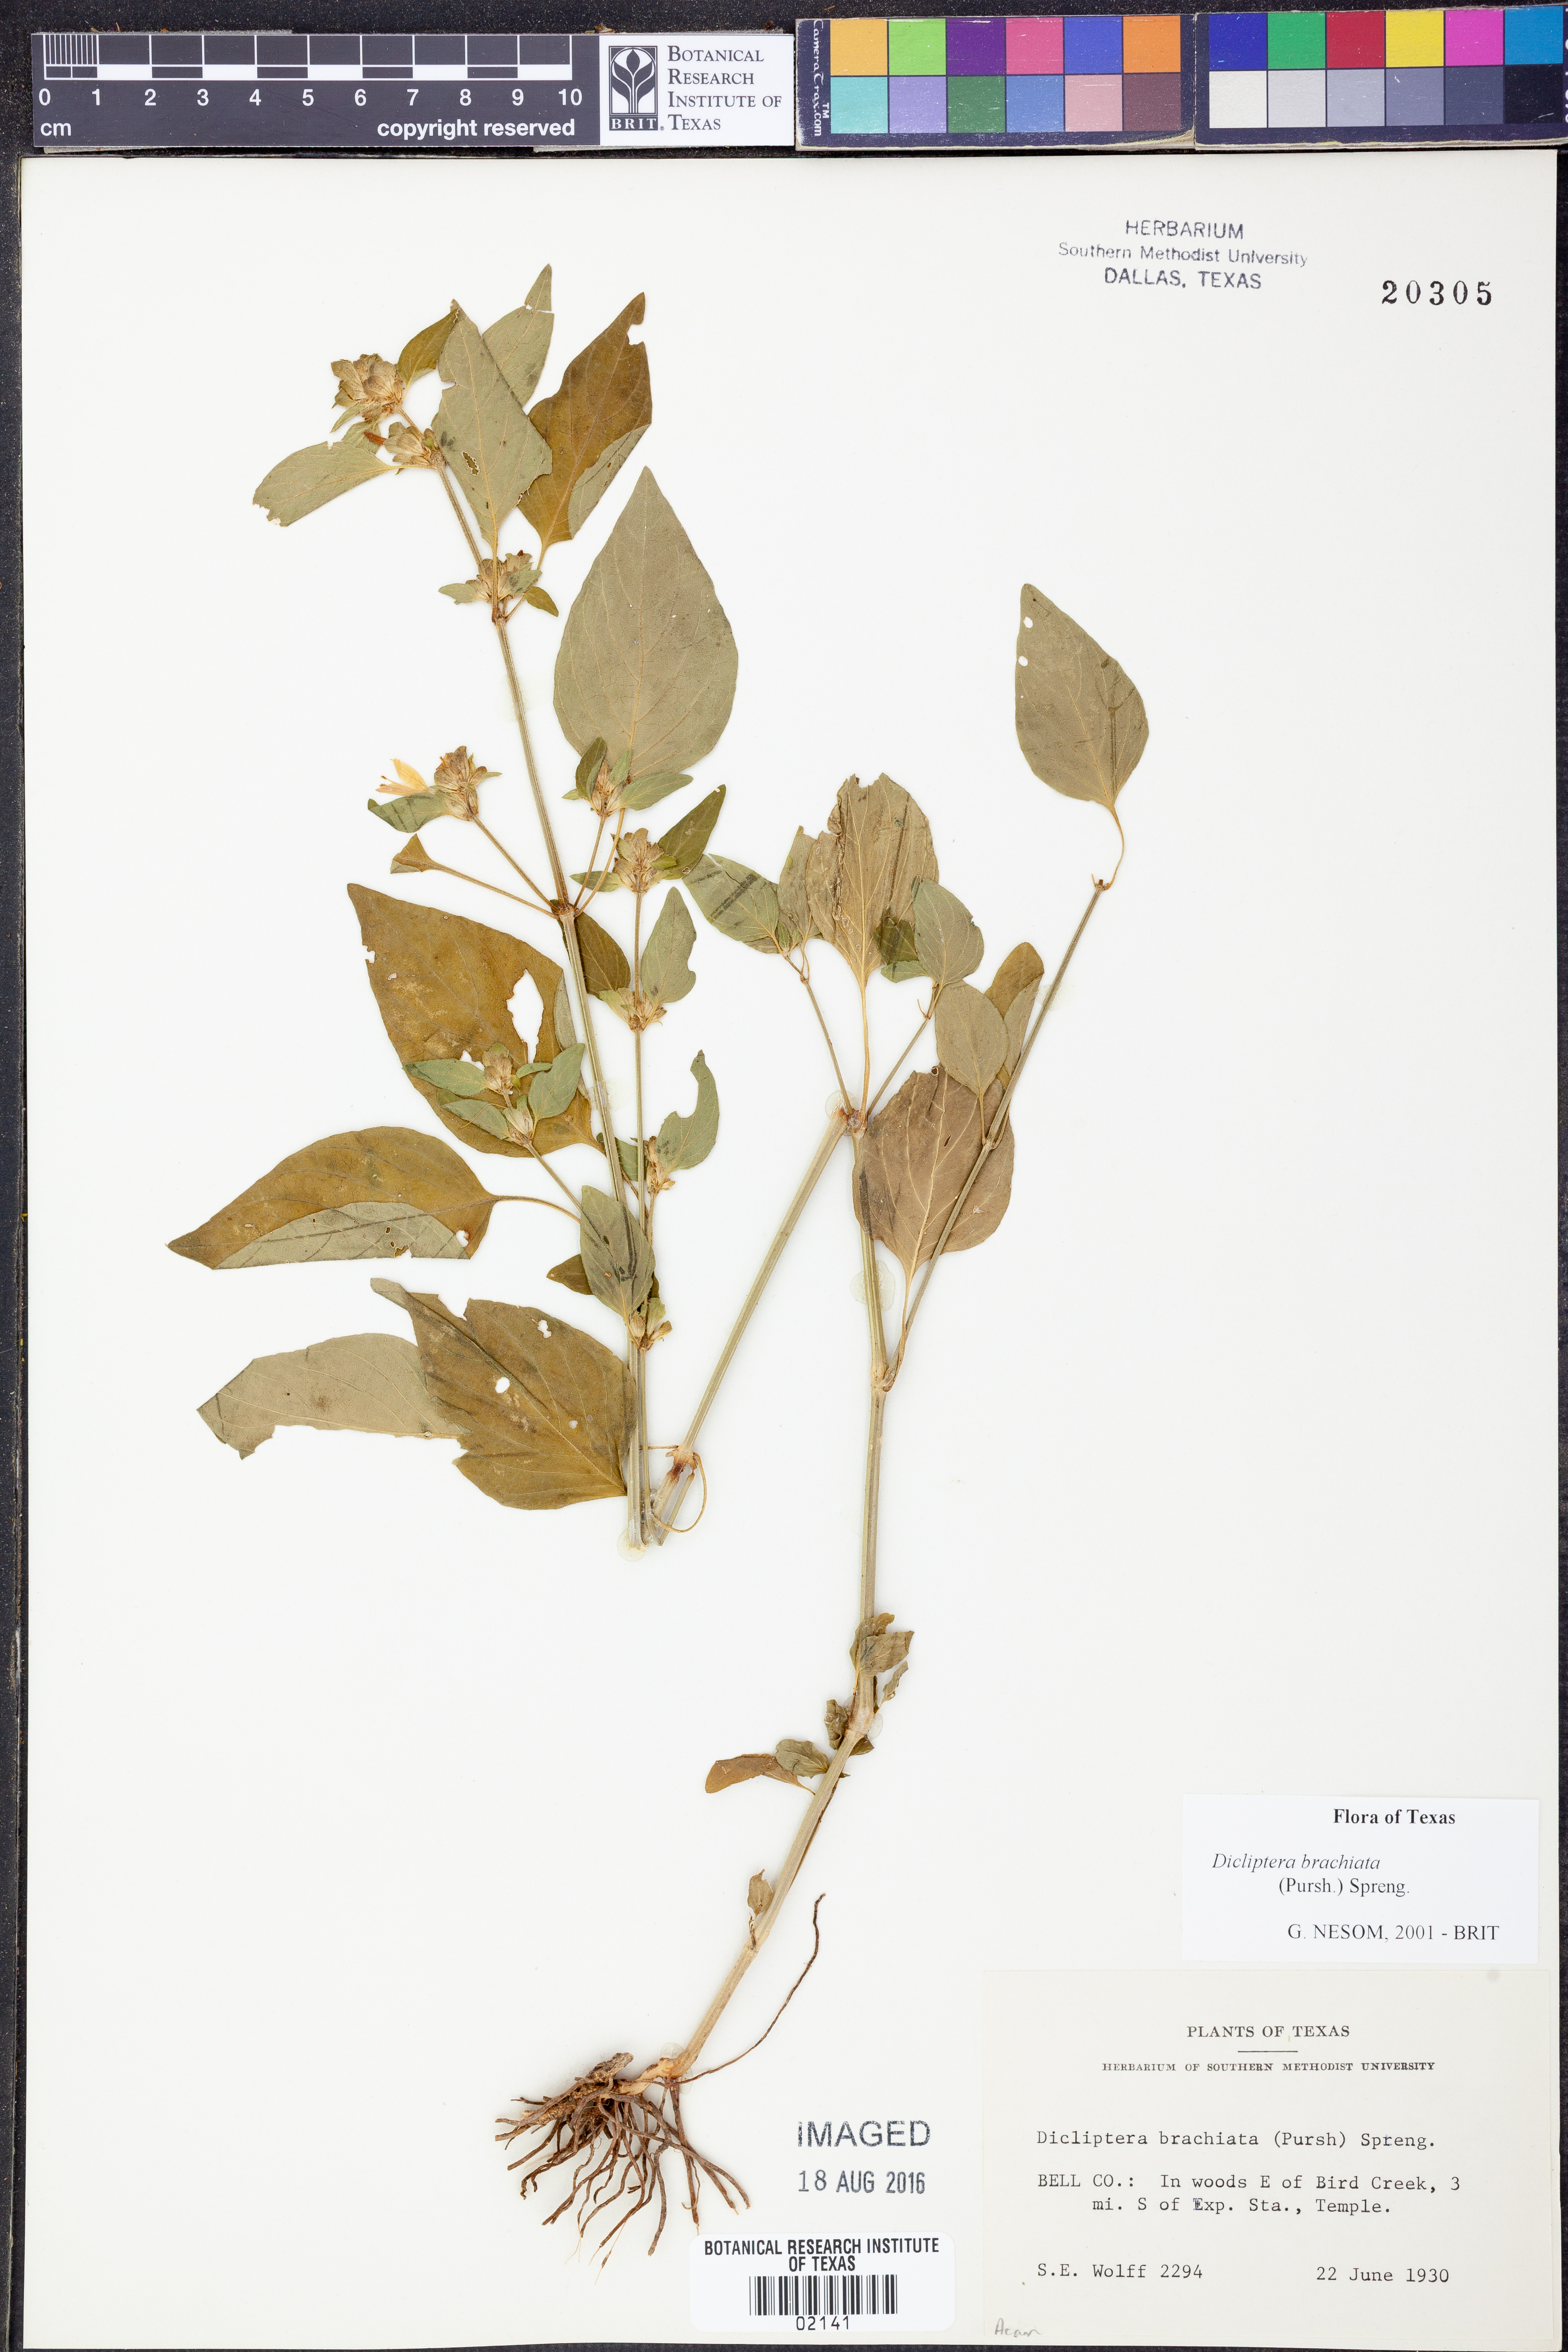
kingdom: Plantae
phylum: Tracheophyta
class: Magnoliopsida
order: Lamiales
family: Acanthaceae
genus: Dicliptera
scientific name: Dicliptera brachiata
